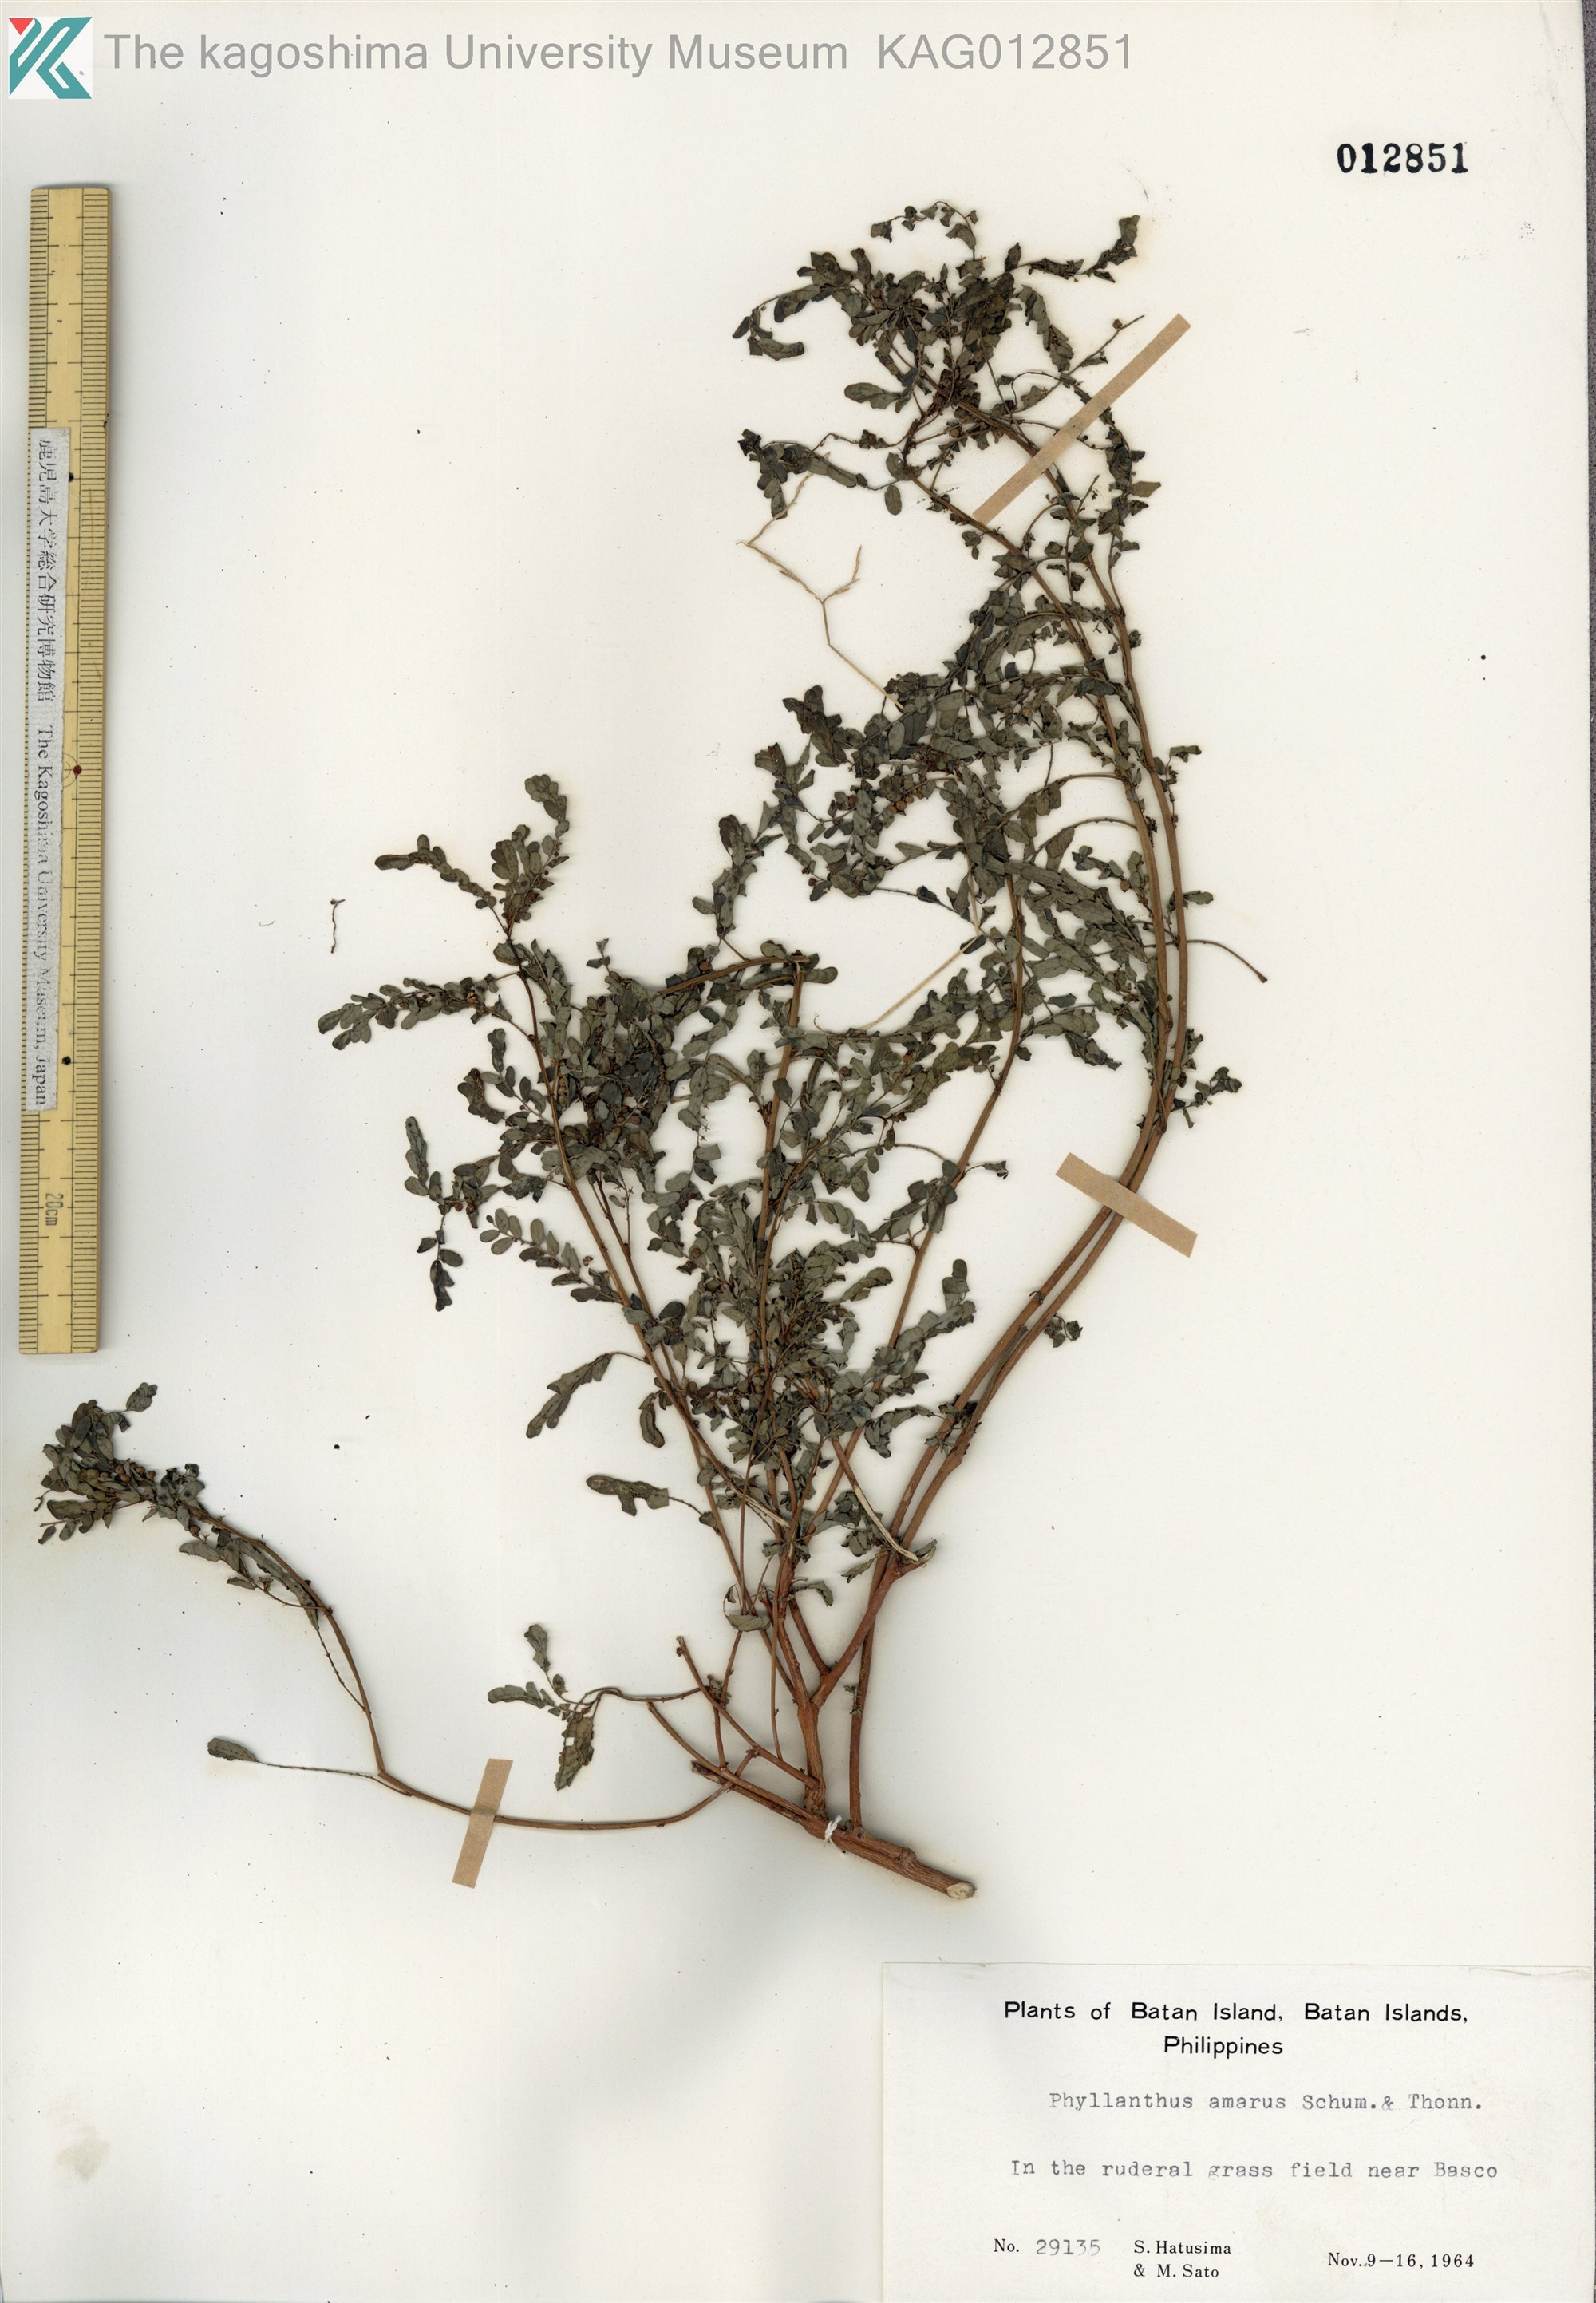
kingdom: Plantae
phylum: Tracheophyta
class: Magnoliopsida
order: Malpighiales
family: Phyllanthaceae
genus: Phyllanthus
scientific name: Phyllanthus amarus
